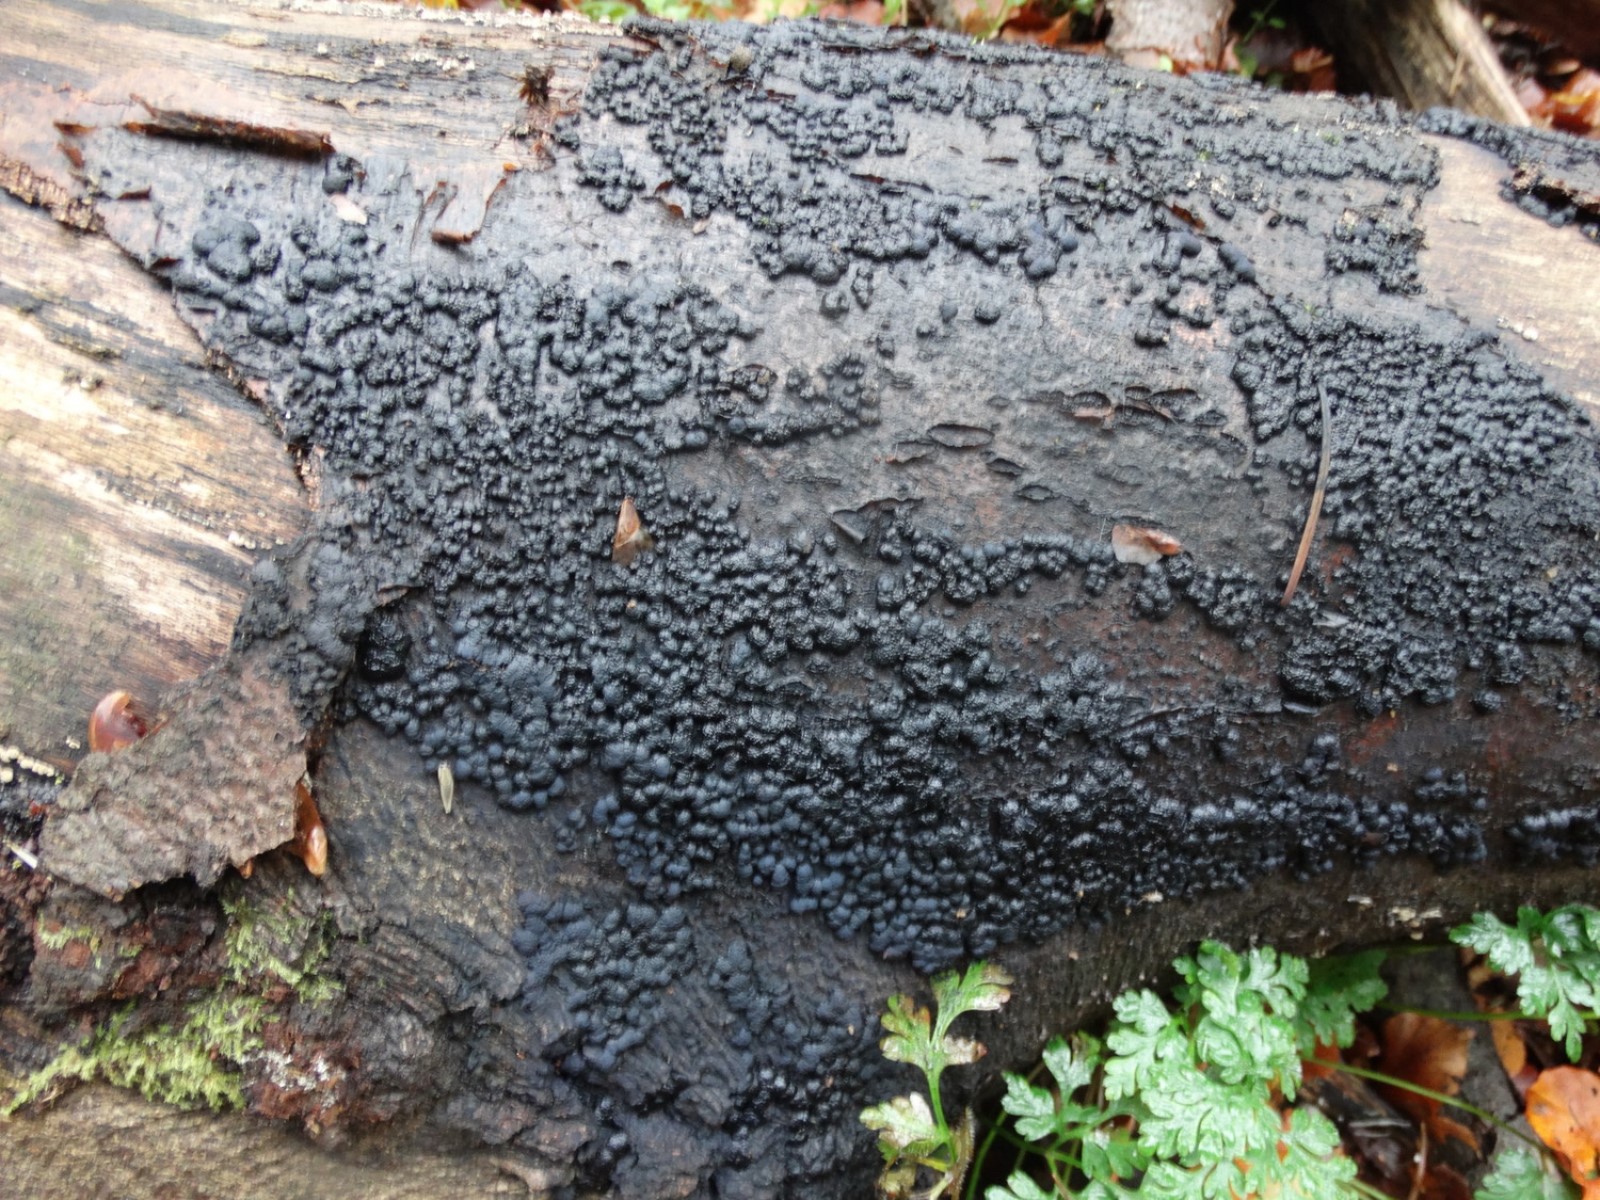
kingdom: Fungi
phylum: Ascomycota
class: Sordariomycetes
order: Xylariales
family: Hypoxylaceae
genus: Jackrogersella
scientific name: Jackrogersella cohaerens
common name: sammenflydende kulbær
